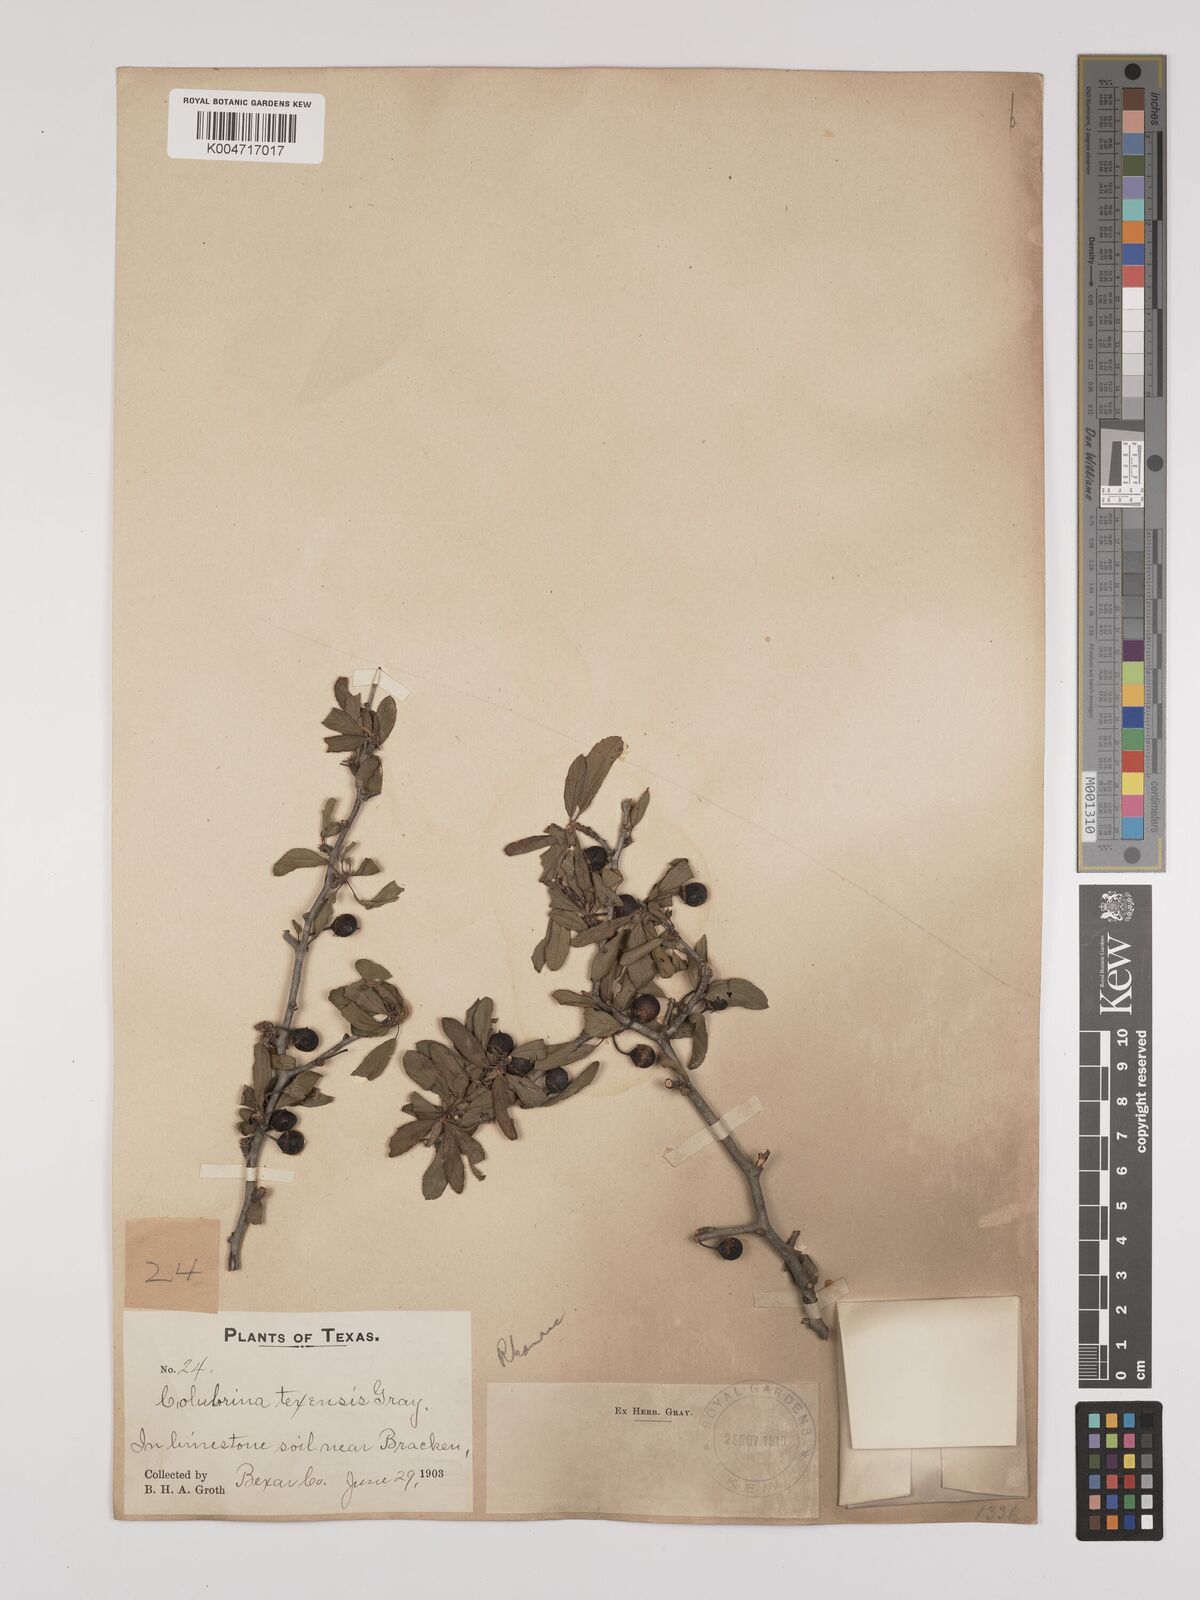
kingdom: Plantae
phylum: Tracheophyta
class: Magnoliopsida
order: Rosales
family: Rhamnaceae
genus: Colubrina
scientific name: Colubrina texensis
